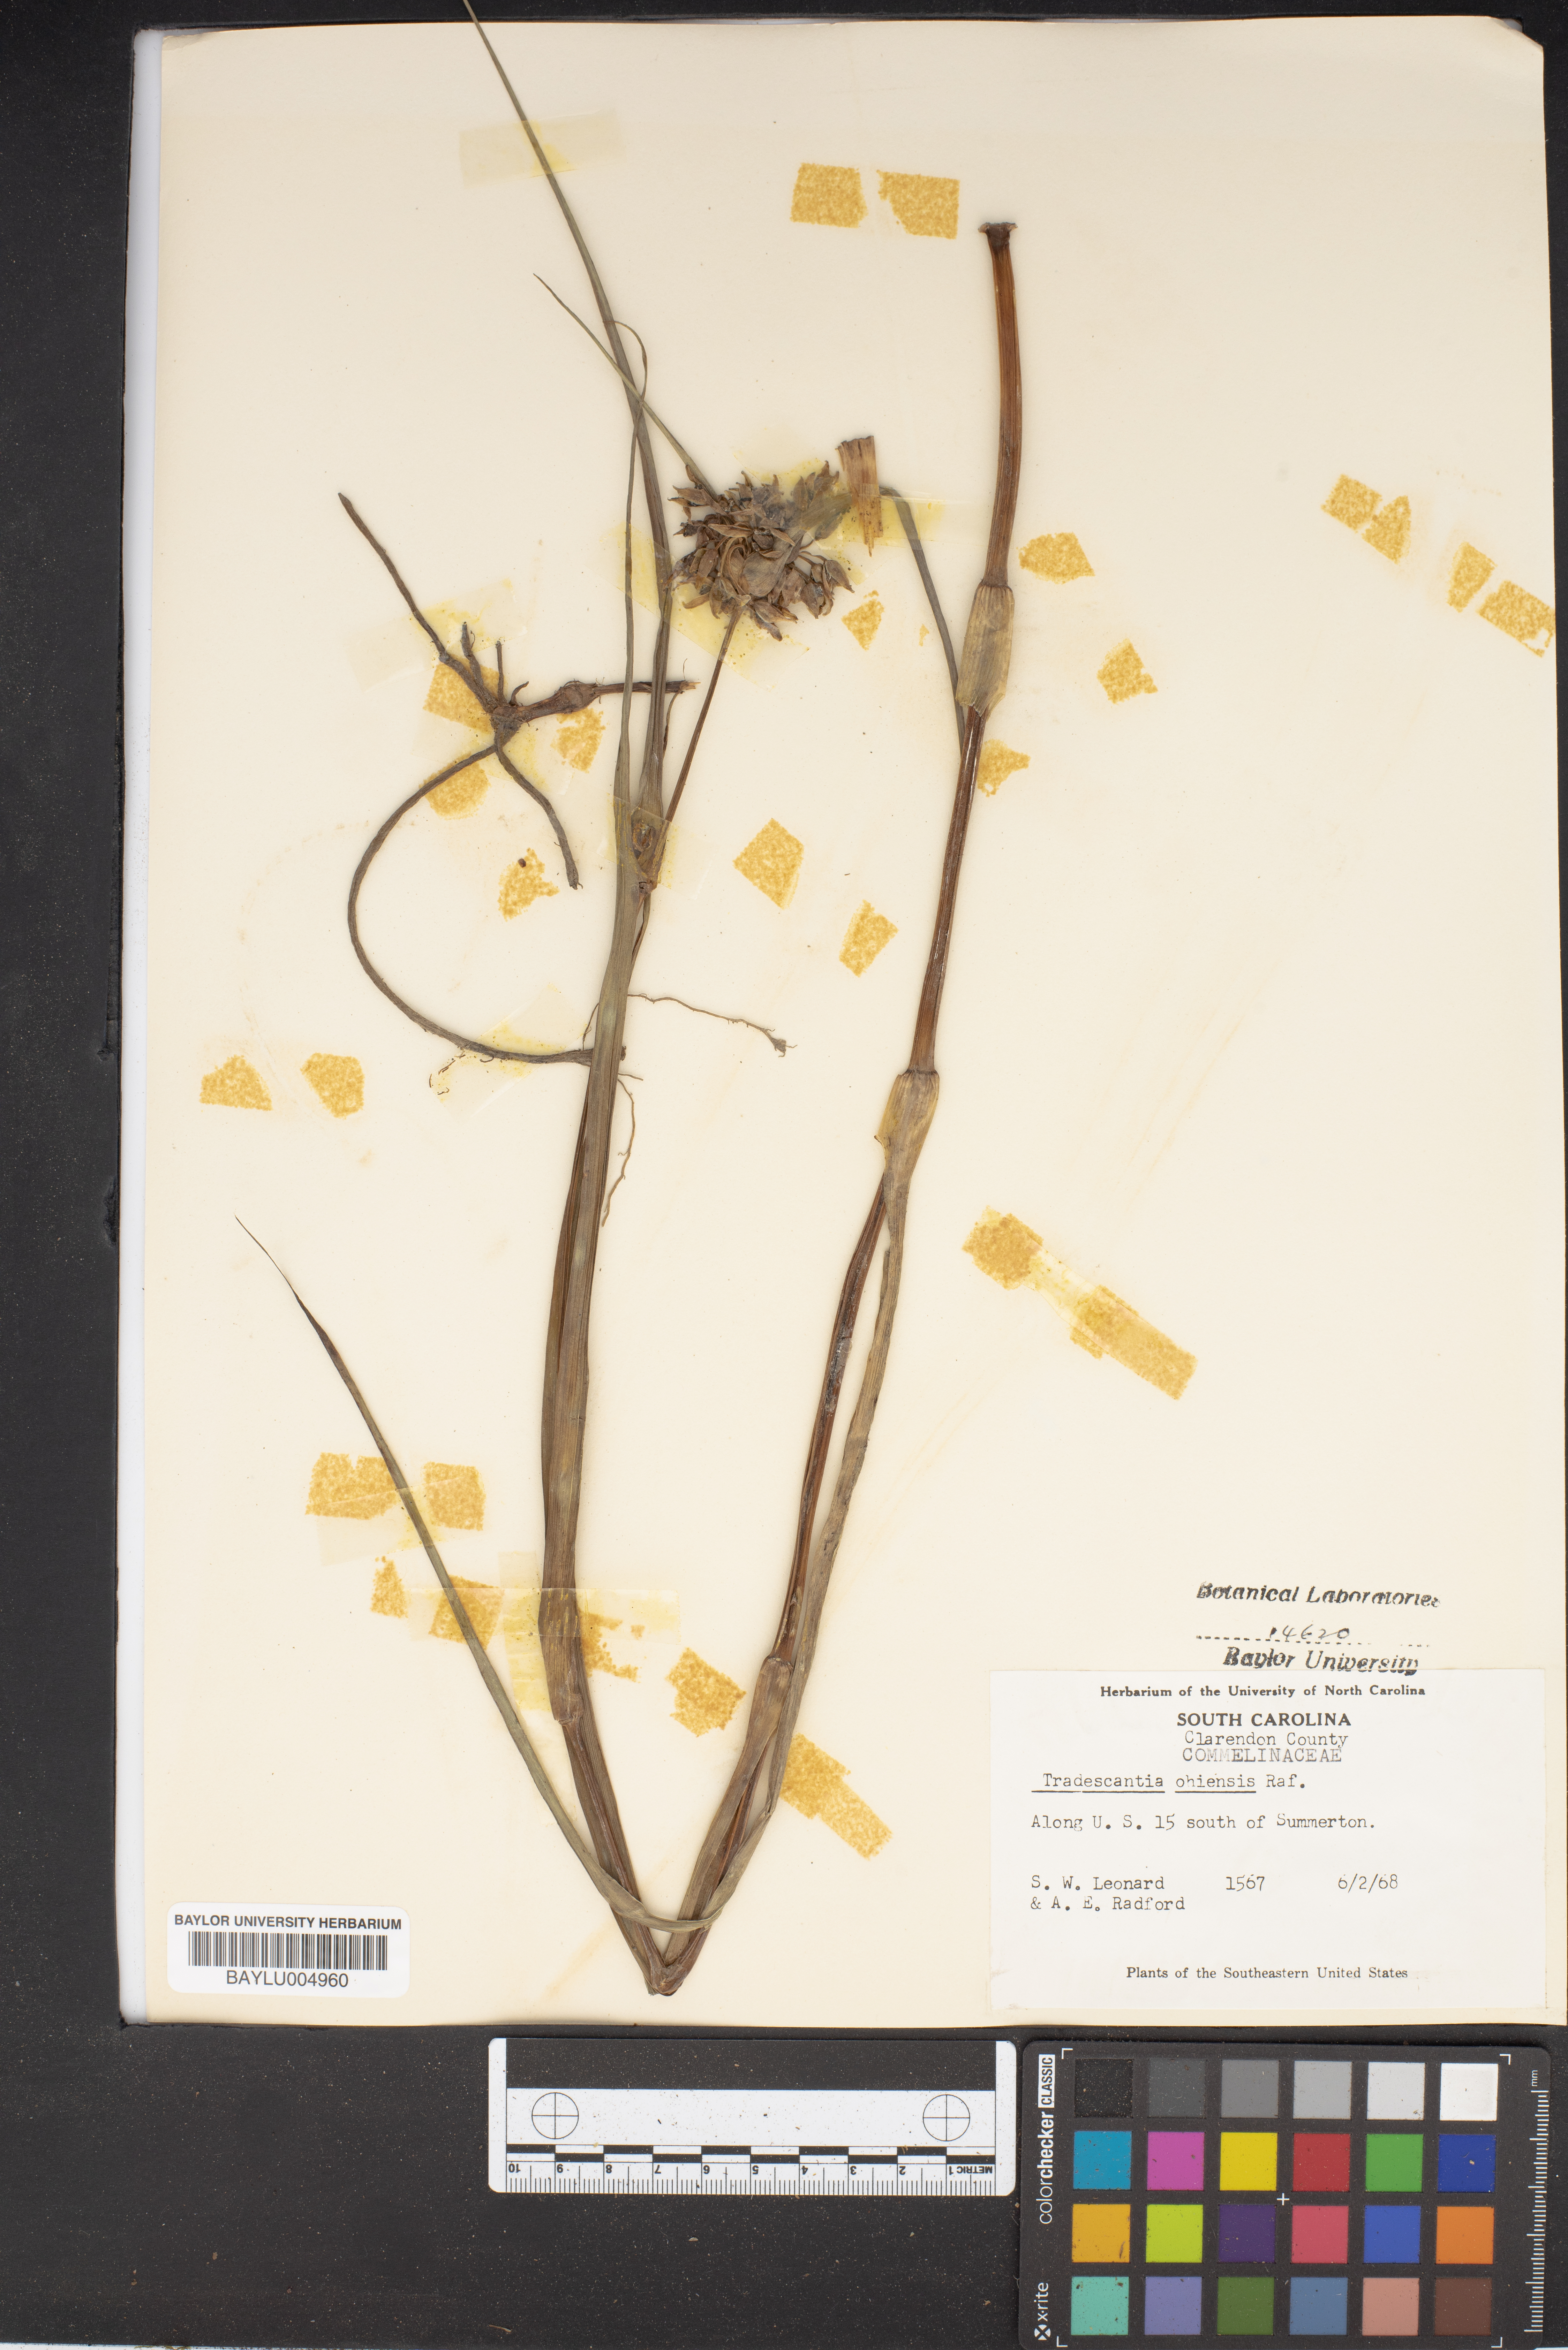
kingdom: Plantae
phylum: Tracheophyta
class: Liliopsida
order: Commelinales
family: Commelinaceae
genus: Tradescantia
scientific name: Tradescantia ohiensis
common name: Ohio spiderwort
